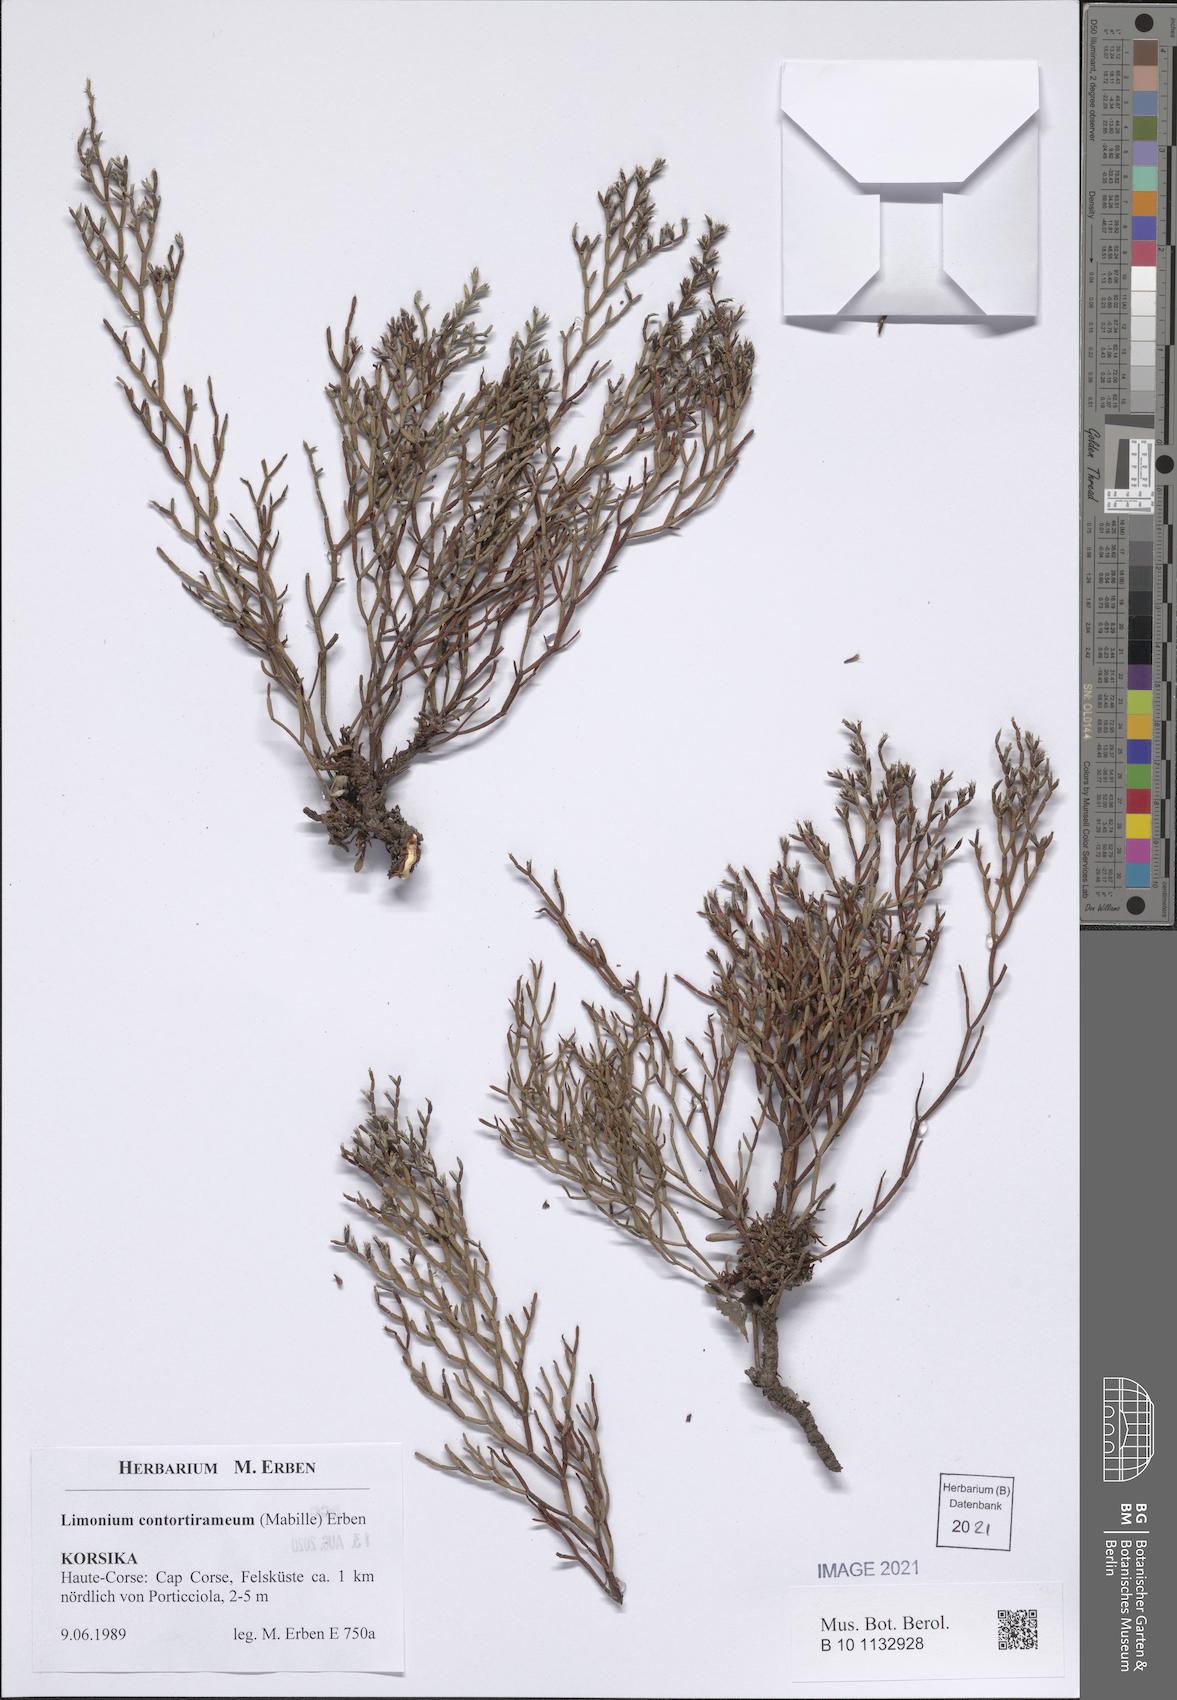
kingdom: Plantae
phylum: Tracheophyta
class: Magnoliopsida
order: Caryophyllales
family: Plumbaginaceae
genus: Limonium
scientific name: Limonium contortirameum
